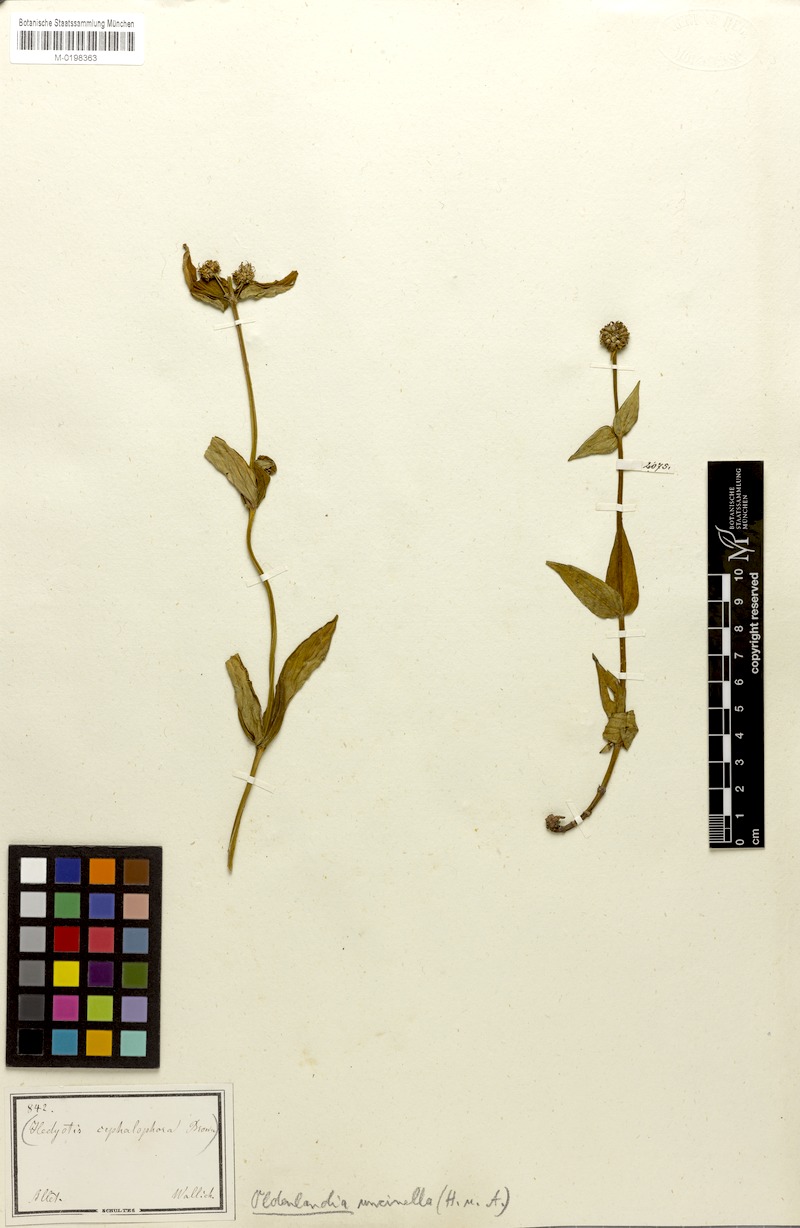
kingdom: Plantae
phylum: Tracheophyta
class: Magnoliopsida
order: Gentianales
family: Rubiaceae
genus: Hedyotis
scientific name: Hedyotis uncinella
